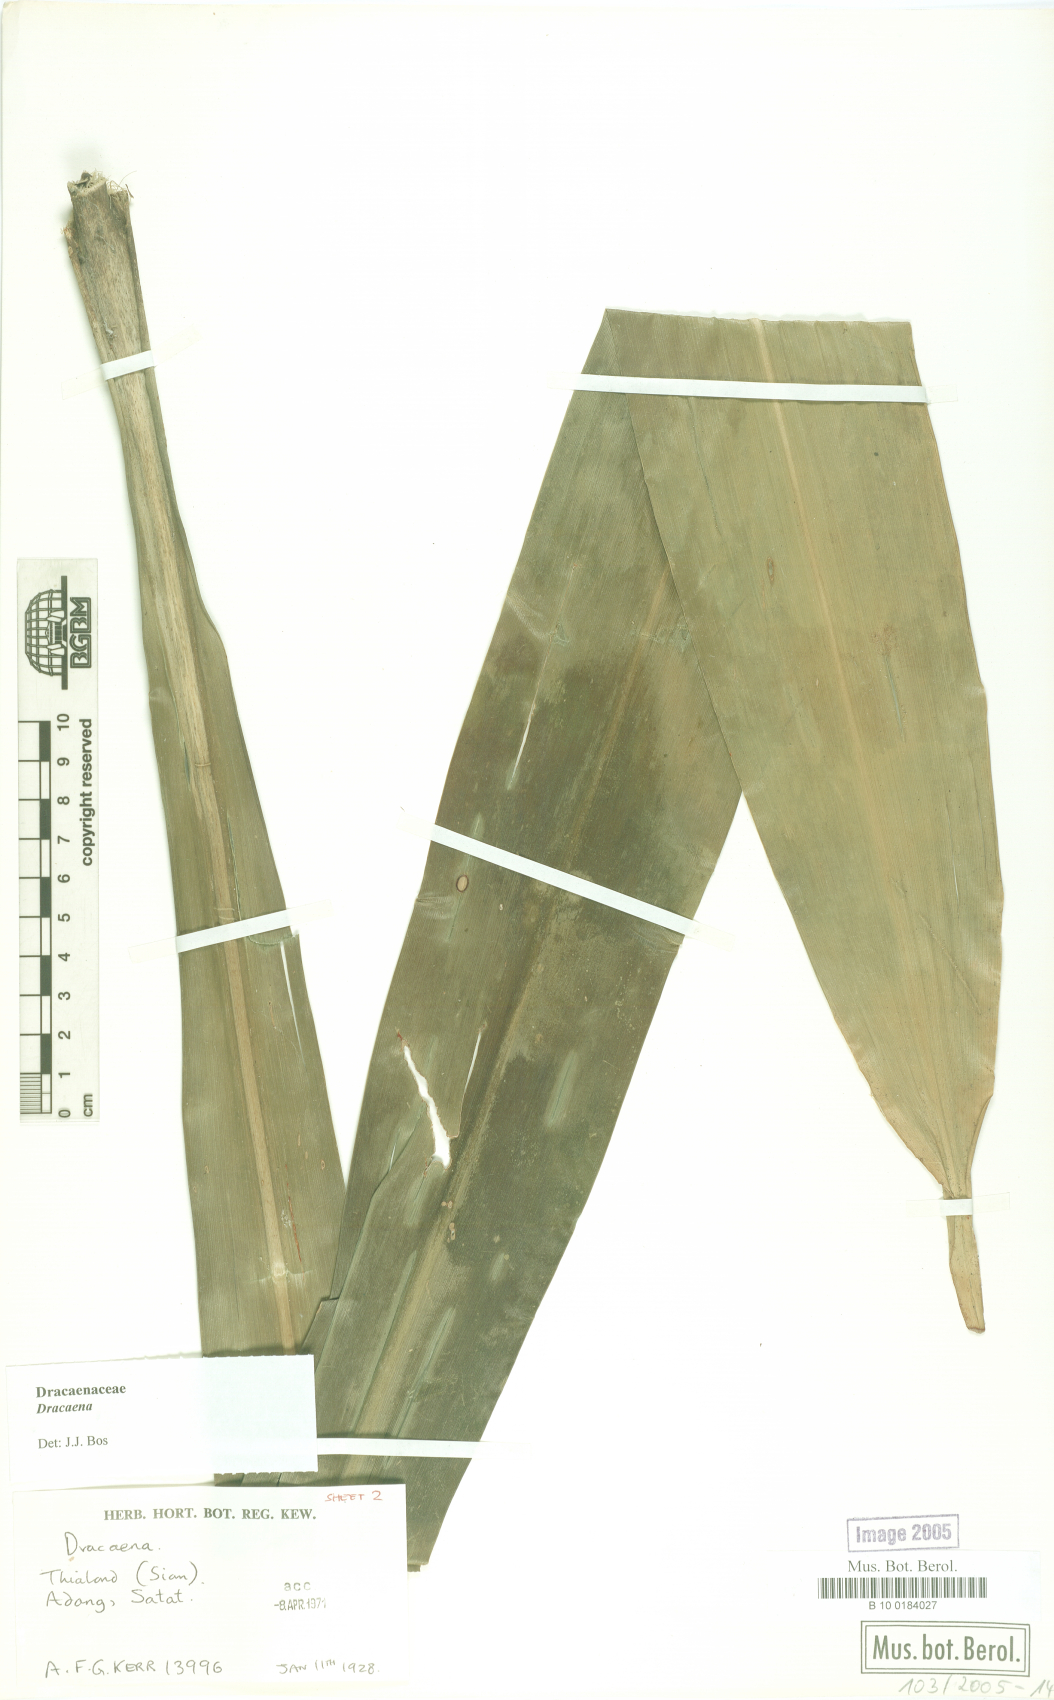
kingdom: Plantae
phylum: Tracheophyta
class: Liliopsida
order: Asparagales
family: Asparagaceae
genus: Dracaena
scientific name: Dracaena
